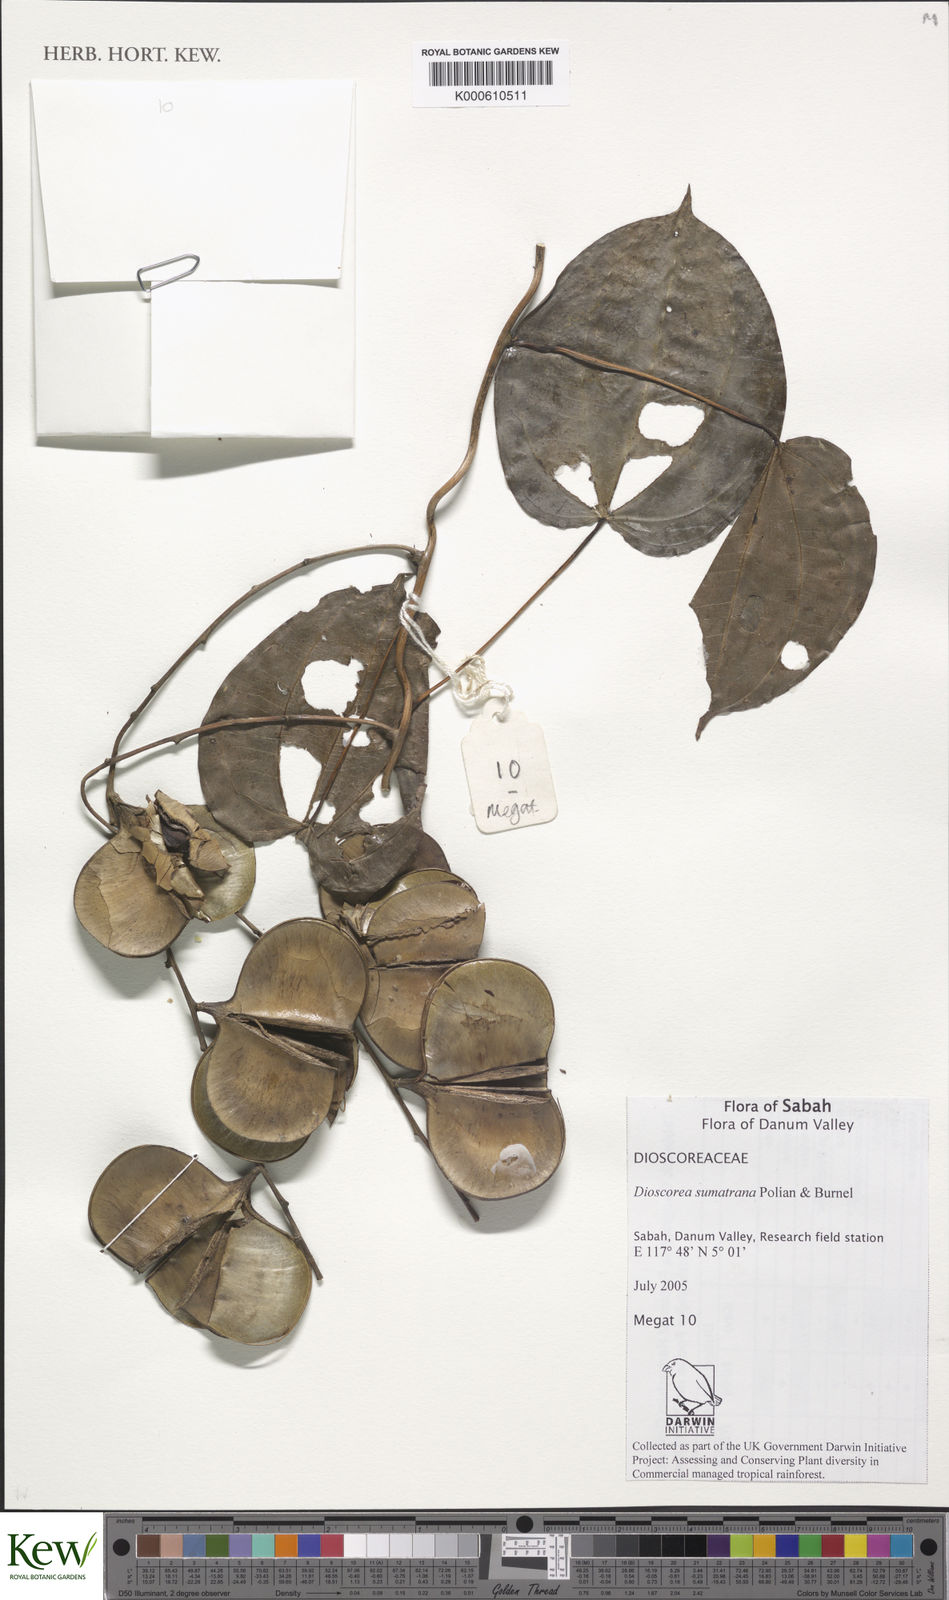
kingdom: Plantae
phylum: Tracheophyta
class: Liliopsida
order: Dioscoreales
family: Dioscoreaceae
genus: Dioscorea
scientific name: Dioscorea sumatrana
